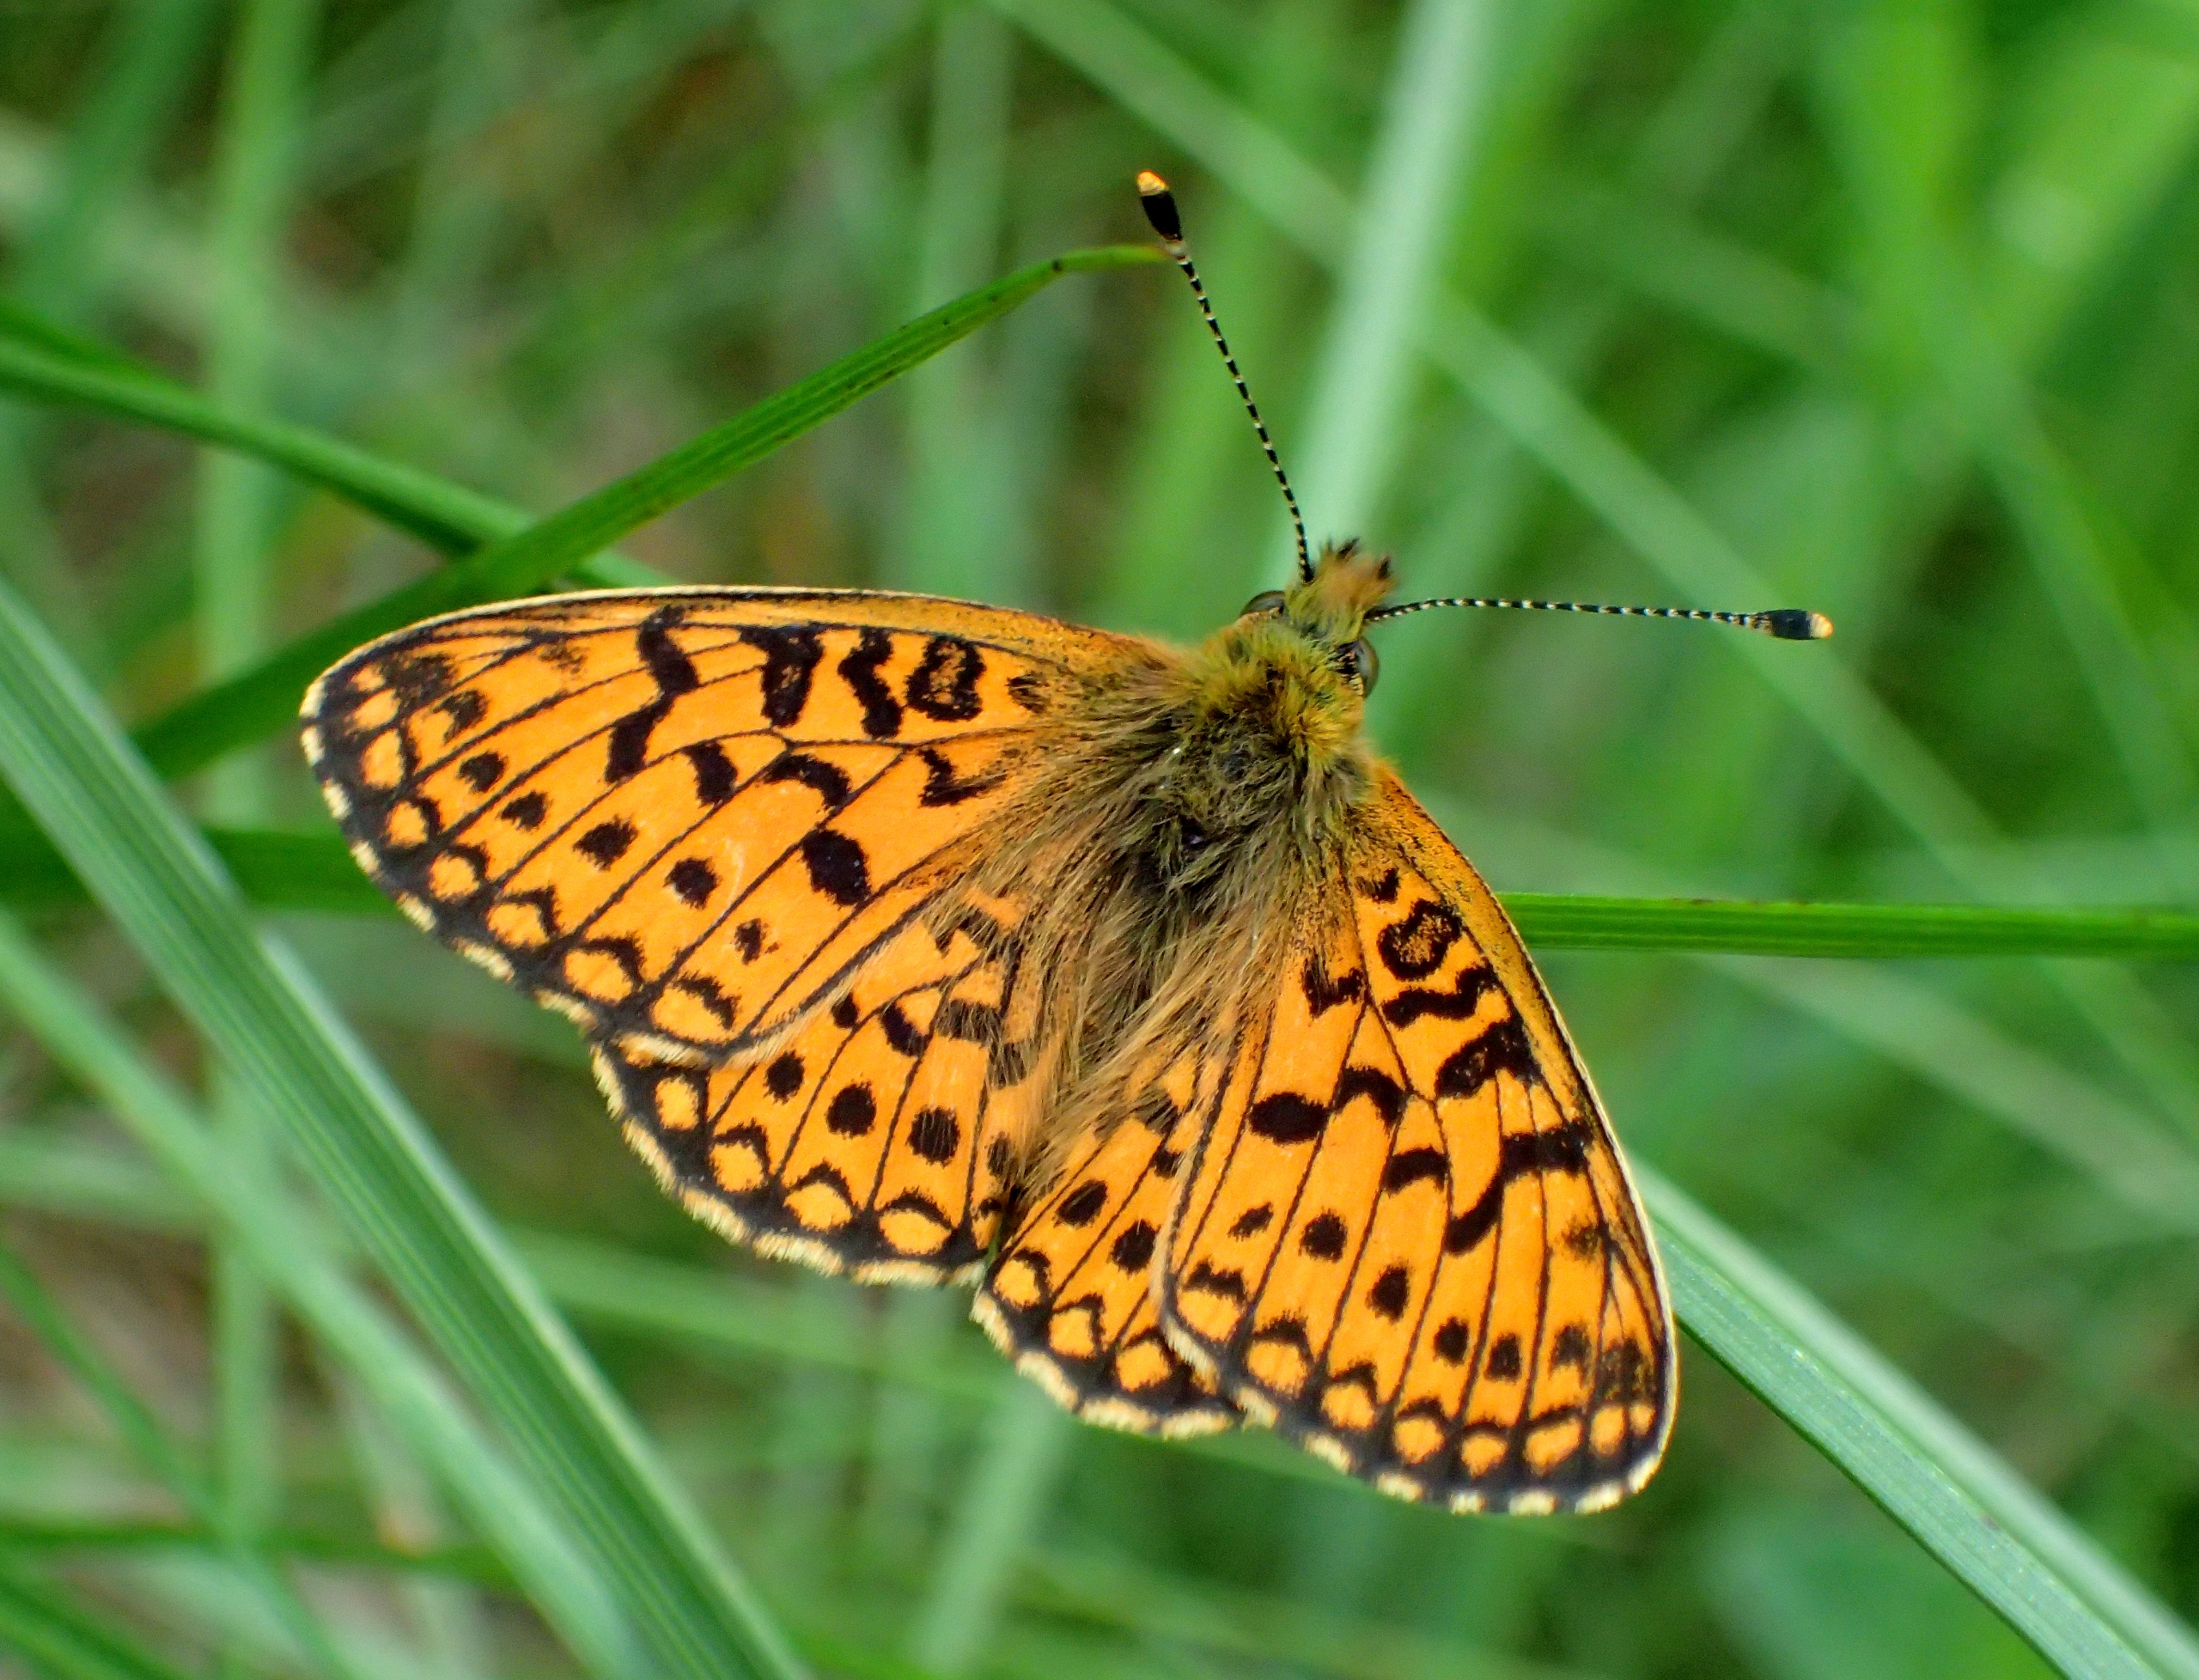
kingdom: Animalia
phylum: Arthropoda
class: Insecta
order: Lepidoptera
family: Nymphalidae
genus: Boloria
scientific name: Boloria selene
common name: Brunlig perlemorsommerfugl
